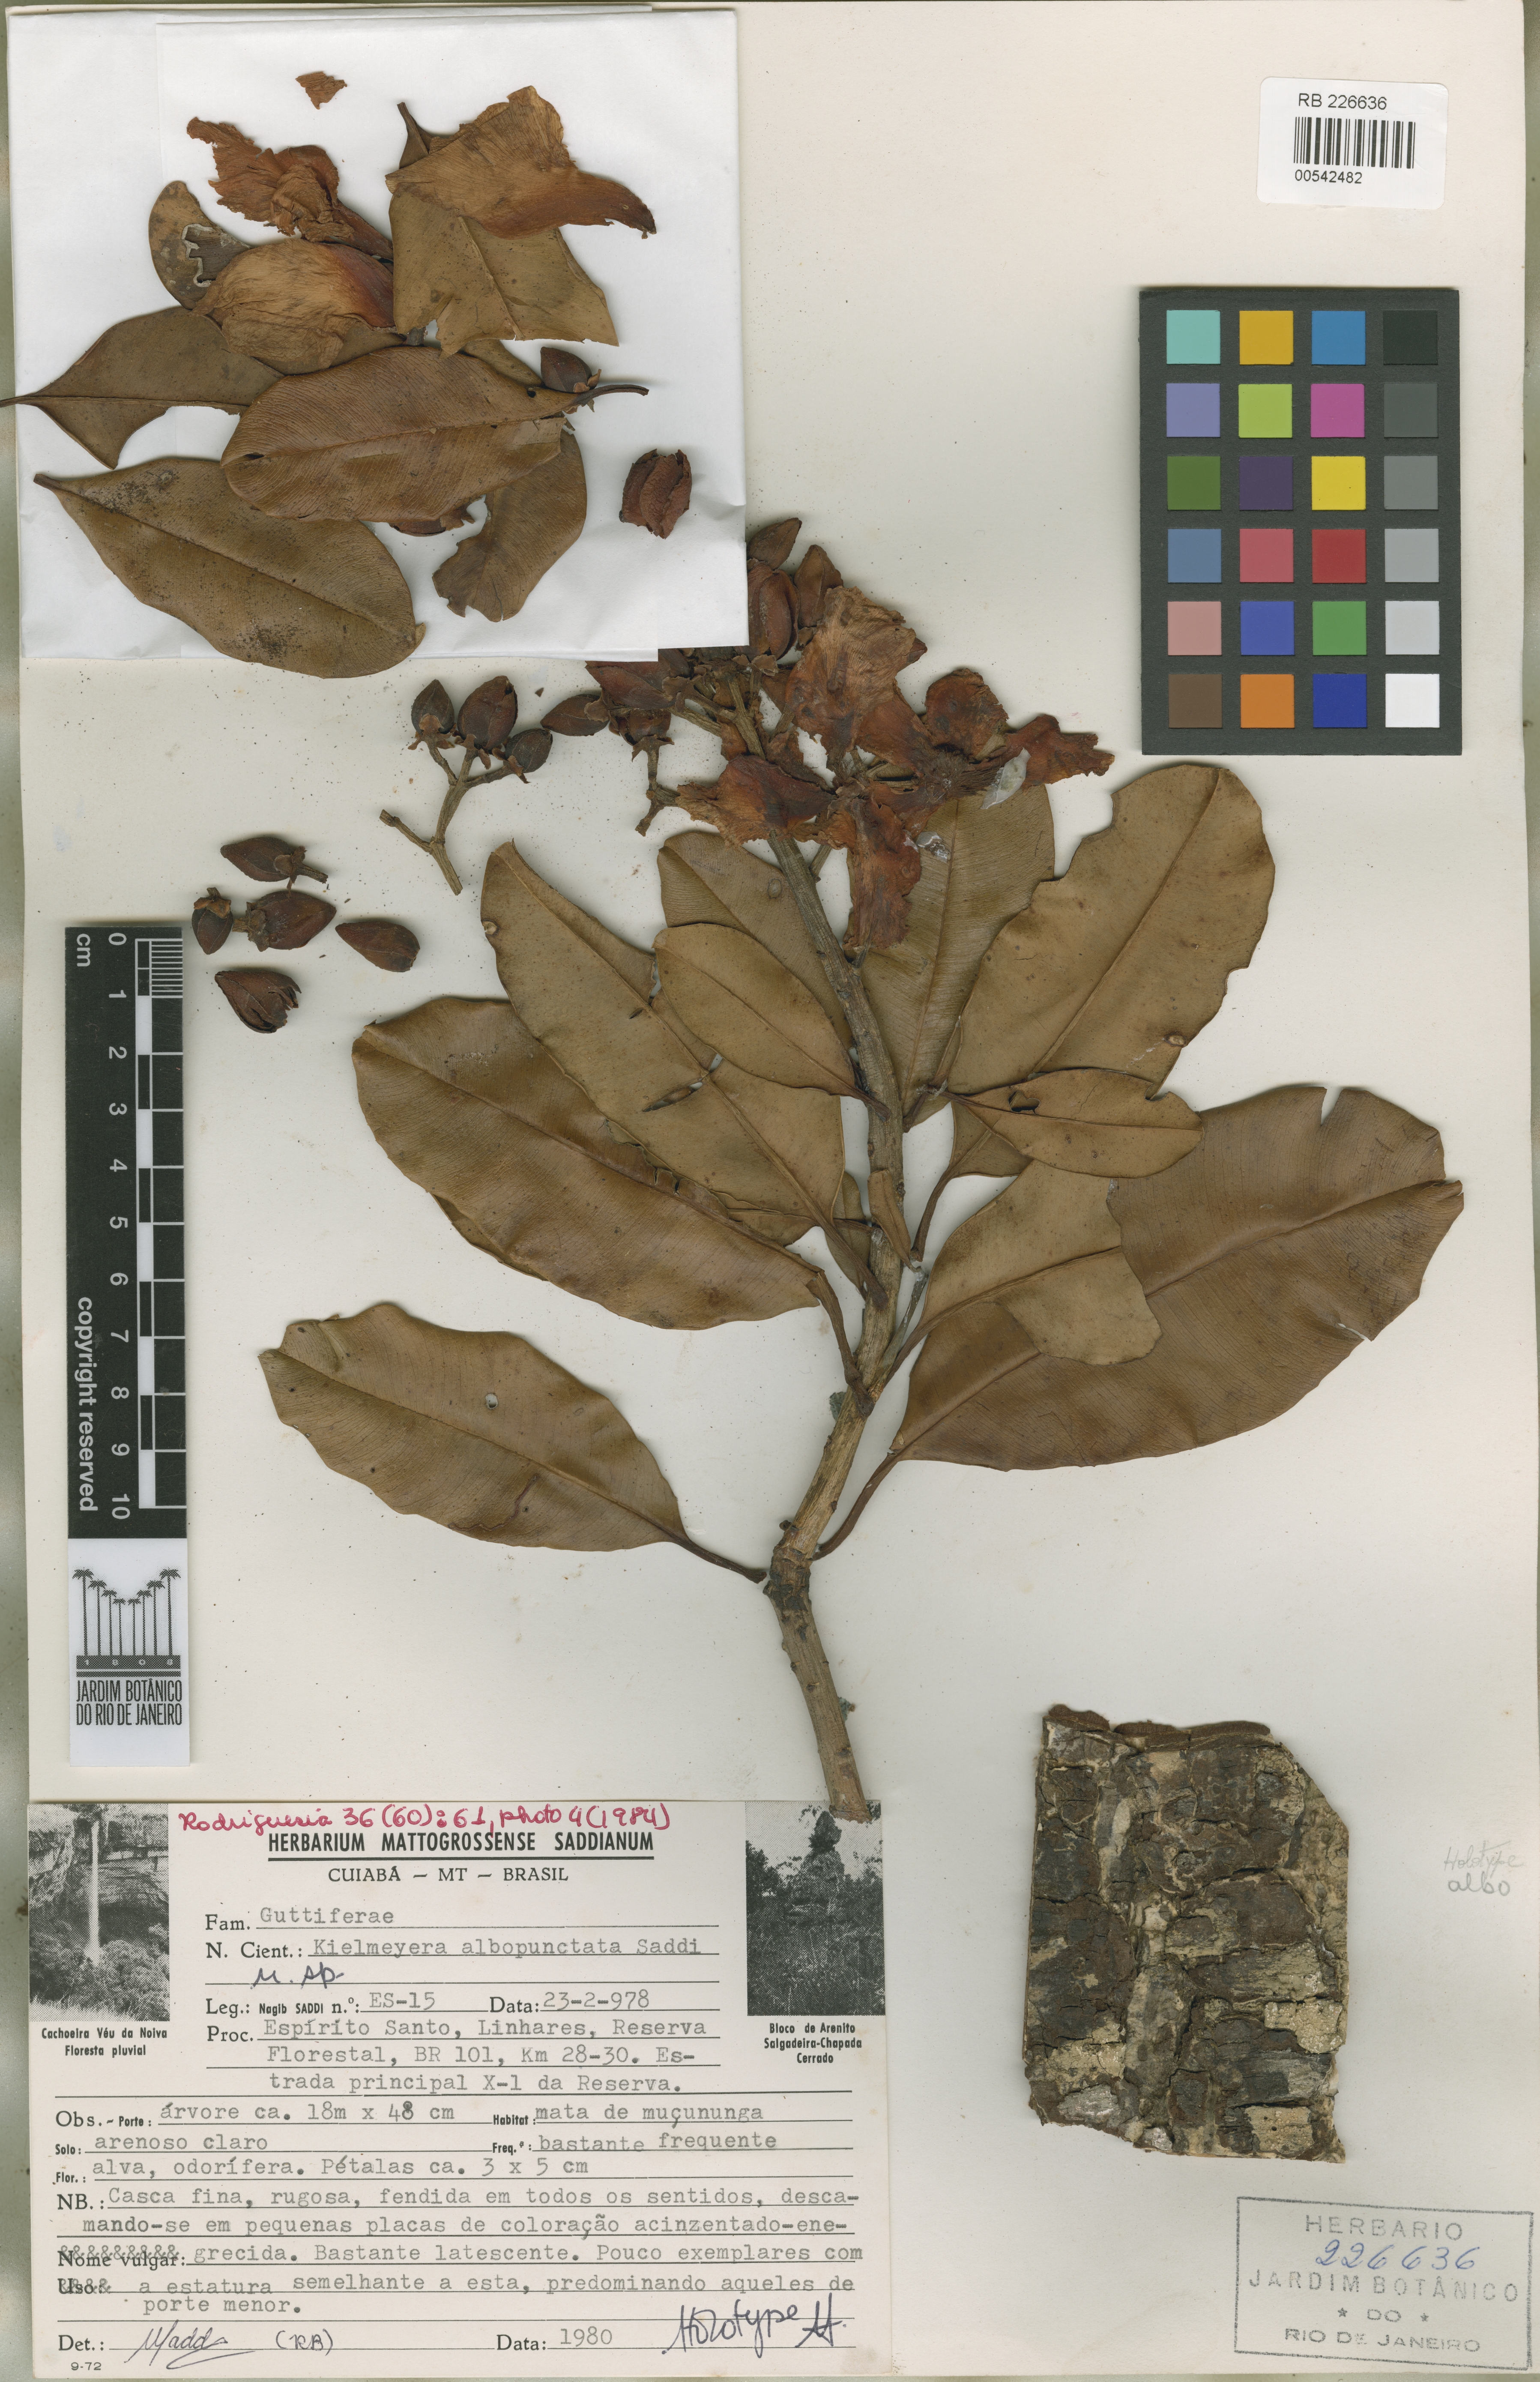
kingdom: Plantae
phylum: Tracheophyta
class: Magnoliopsida
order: Malpighiales
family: Calophyllaceae
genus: Kielmeyera
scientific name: Kielmeyera albopunctata
